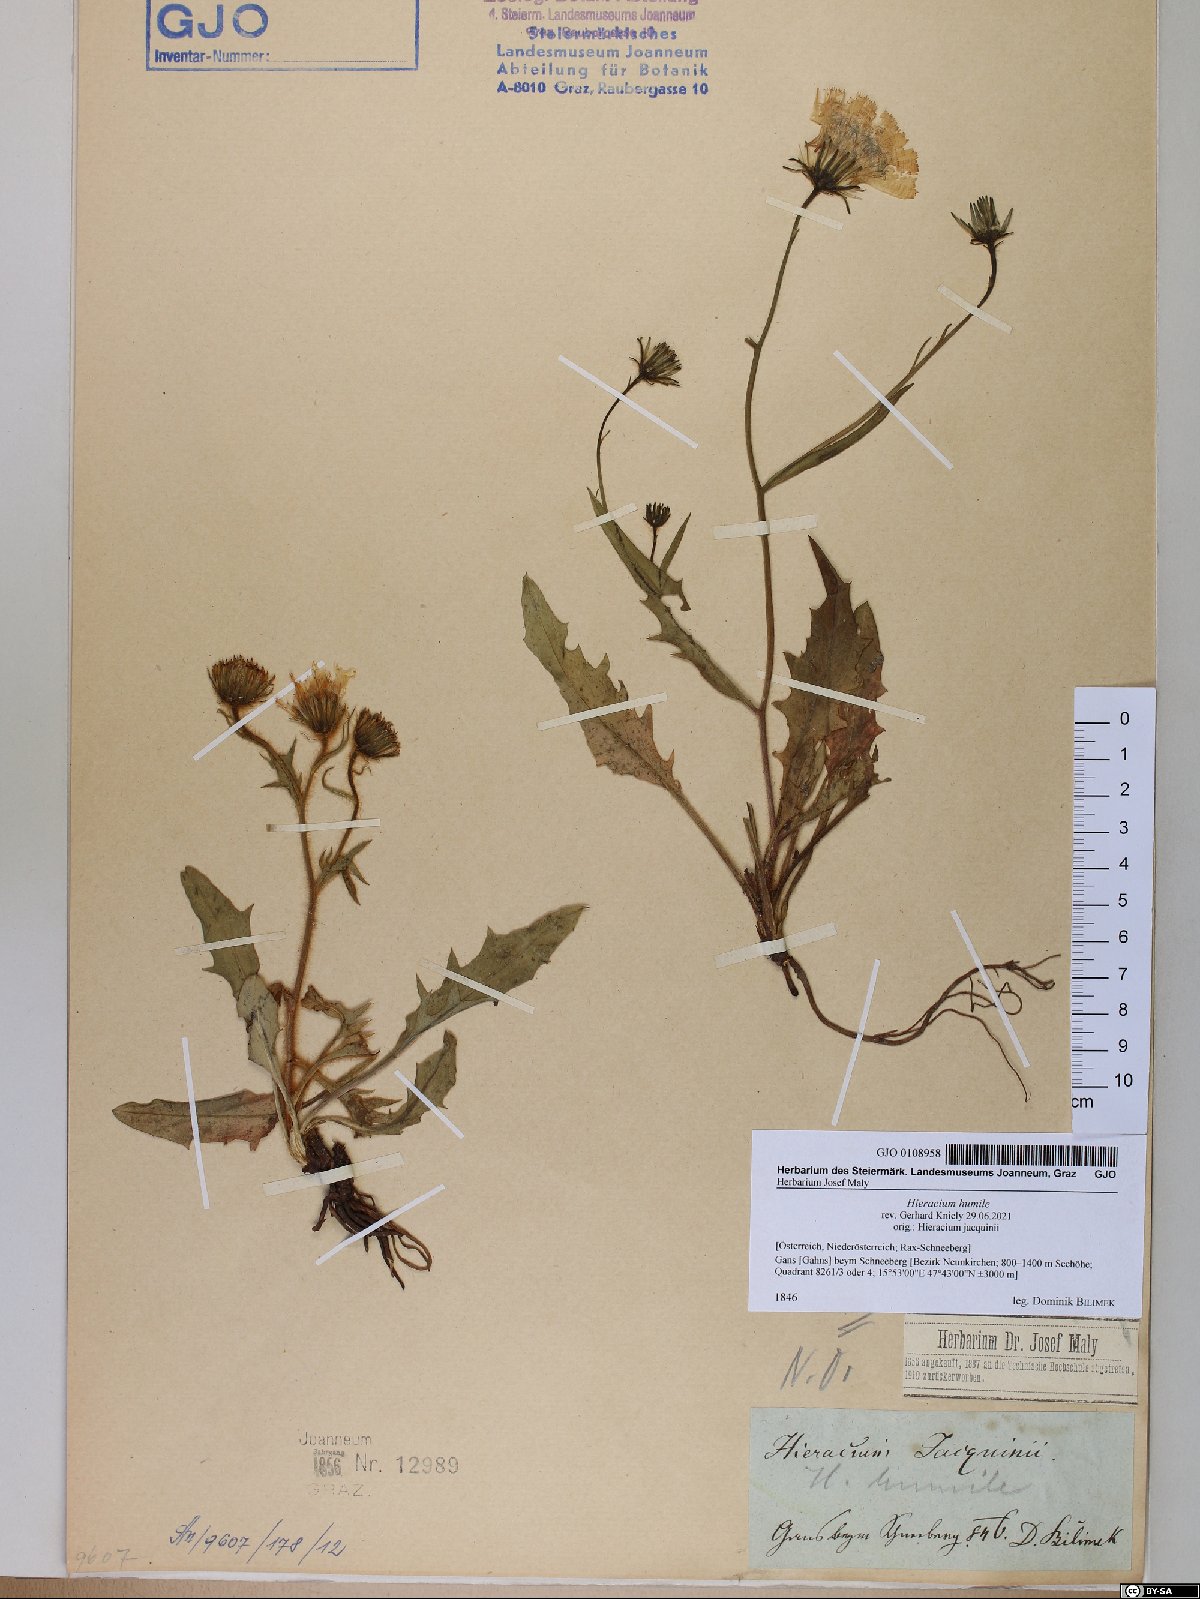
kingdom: Plantae
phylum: Tracheophyta
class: Magnoliopsida
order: Asterales
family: Asteraceae
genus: Hieracium
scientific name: Hieracium humile
